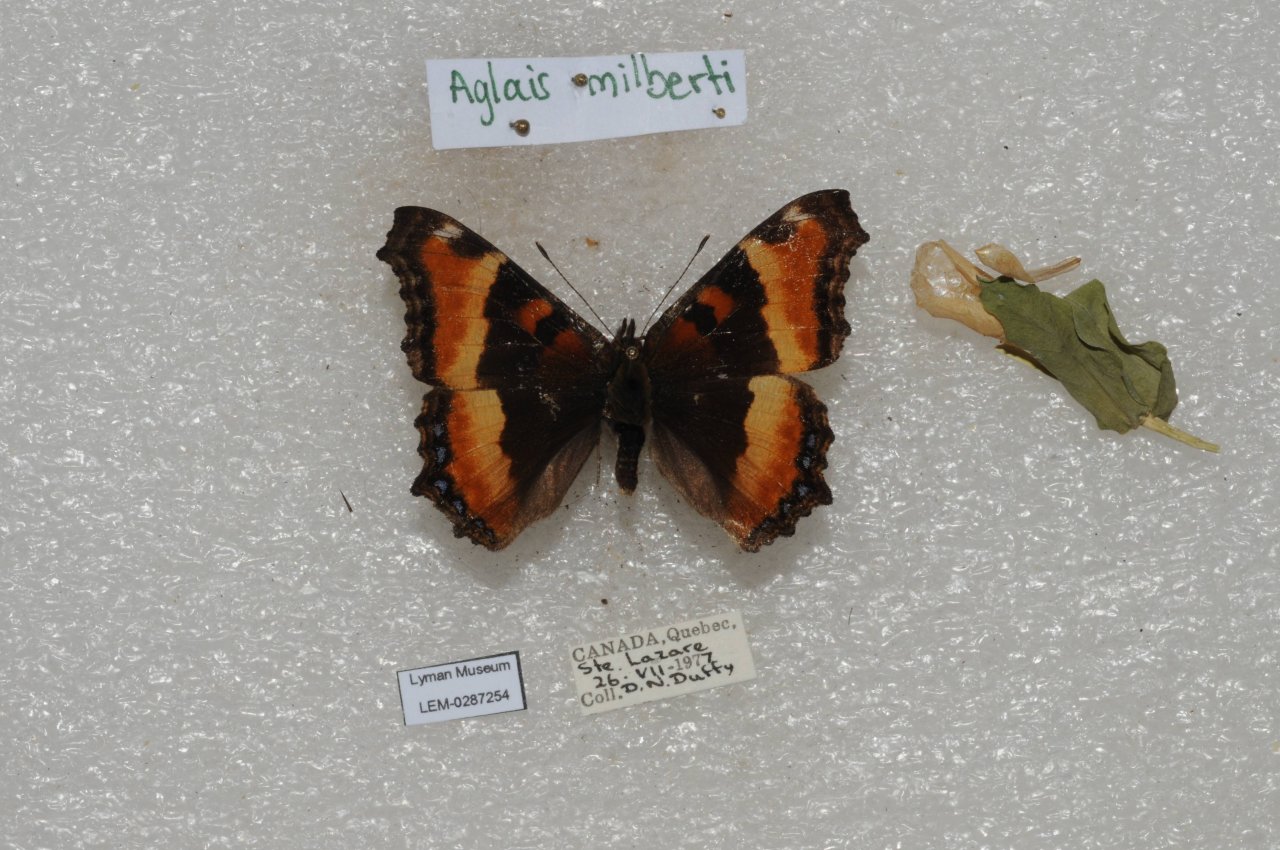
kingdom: Animalia
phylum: Arthropoda
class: Insecta
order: Lepidoptera
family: Nymphalidae
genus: Aglais
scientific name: Aglais milberti
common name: Milbert's Tortoiseshell
